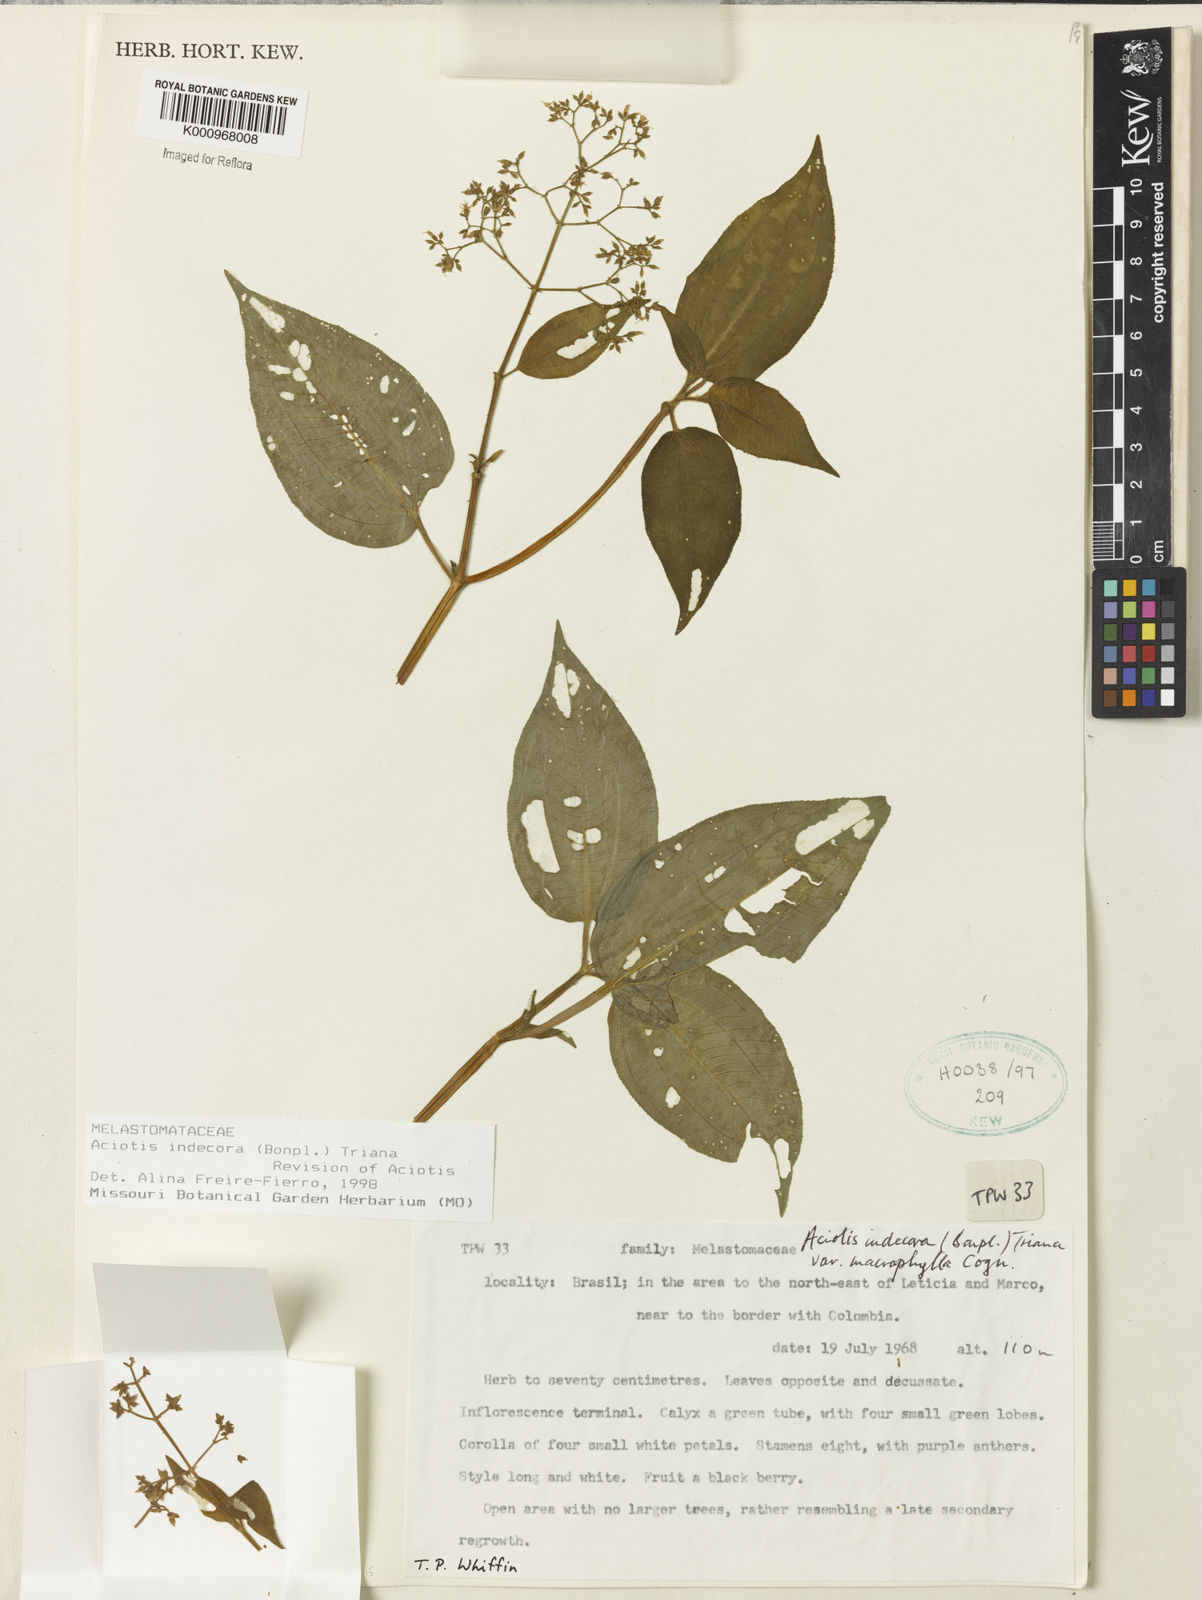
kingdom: Plantae
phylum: Tracheophyta
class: Magnoliopsida
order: Myrtales
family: Melastomataceae
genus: Aciotis
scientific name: Aciotis indecora
